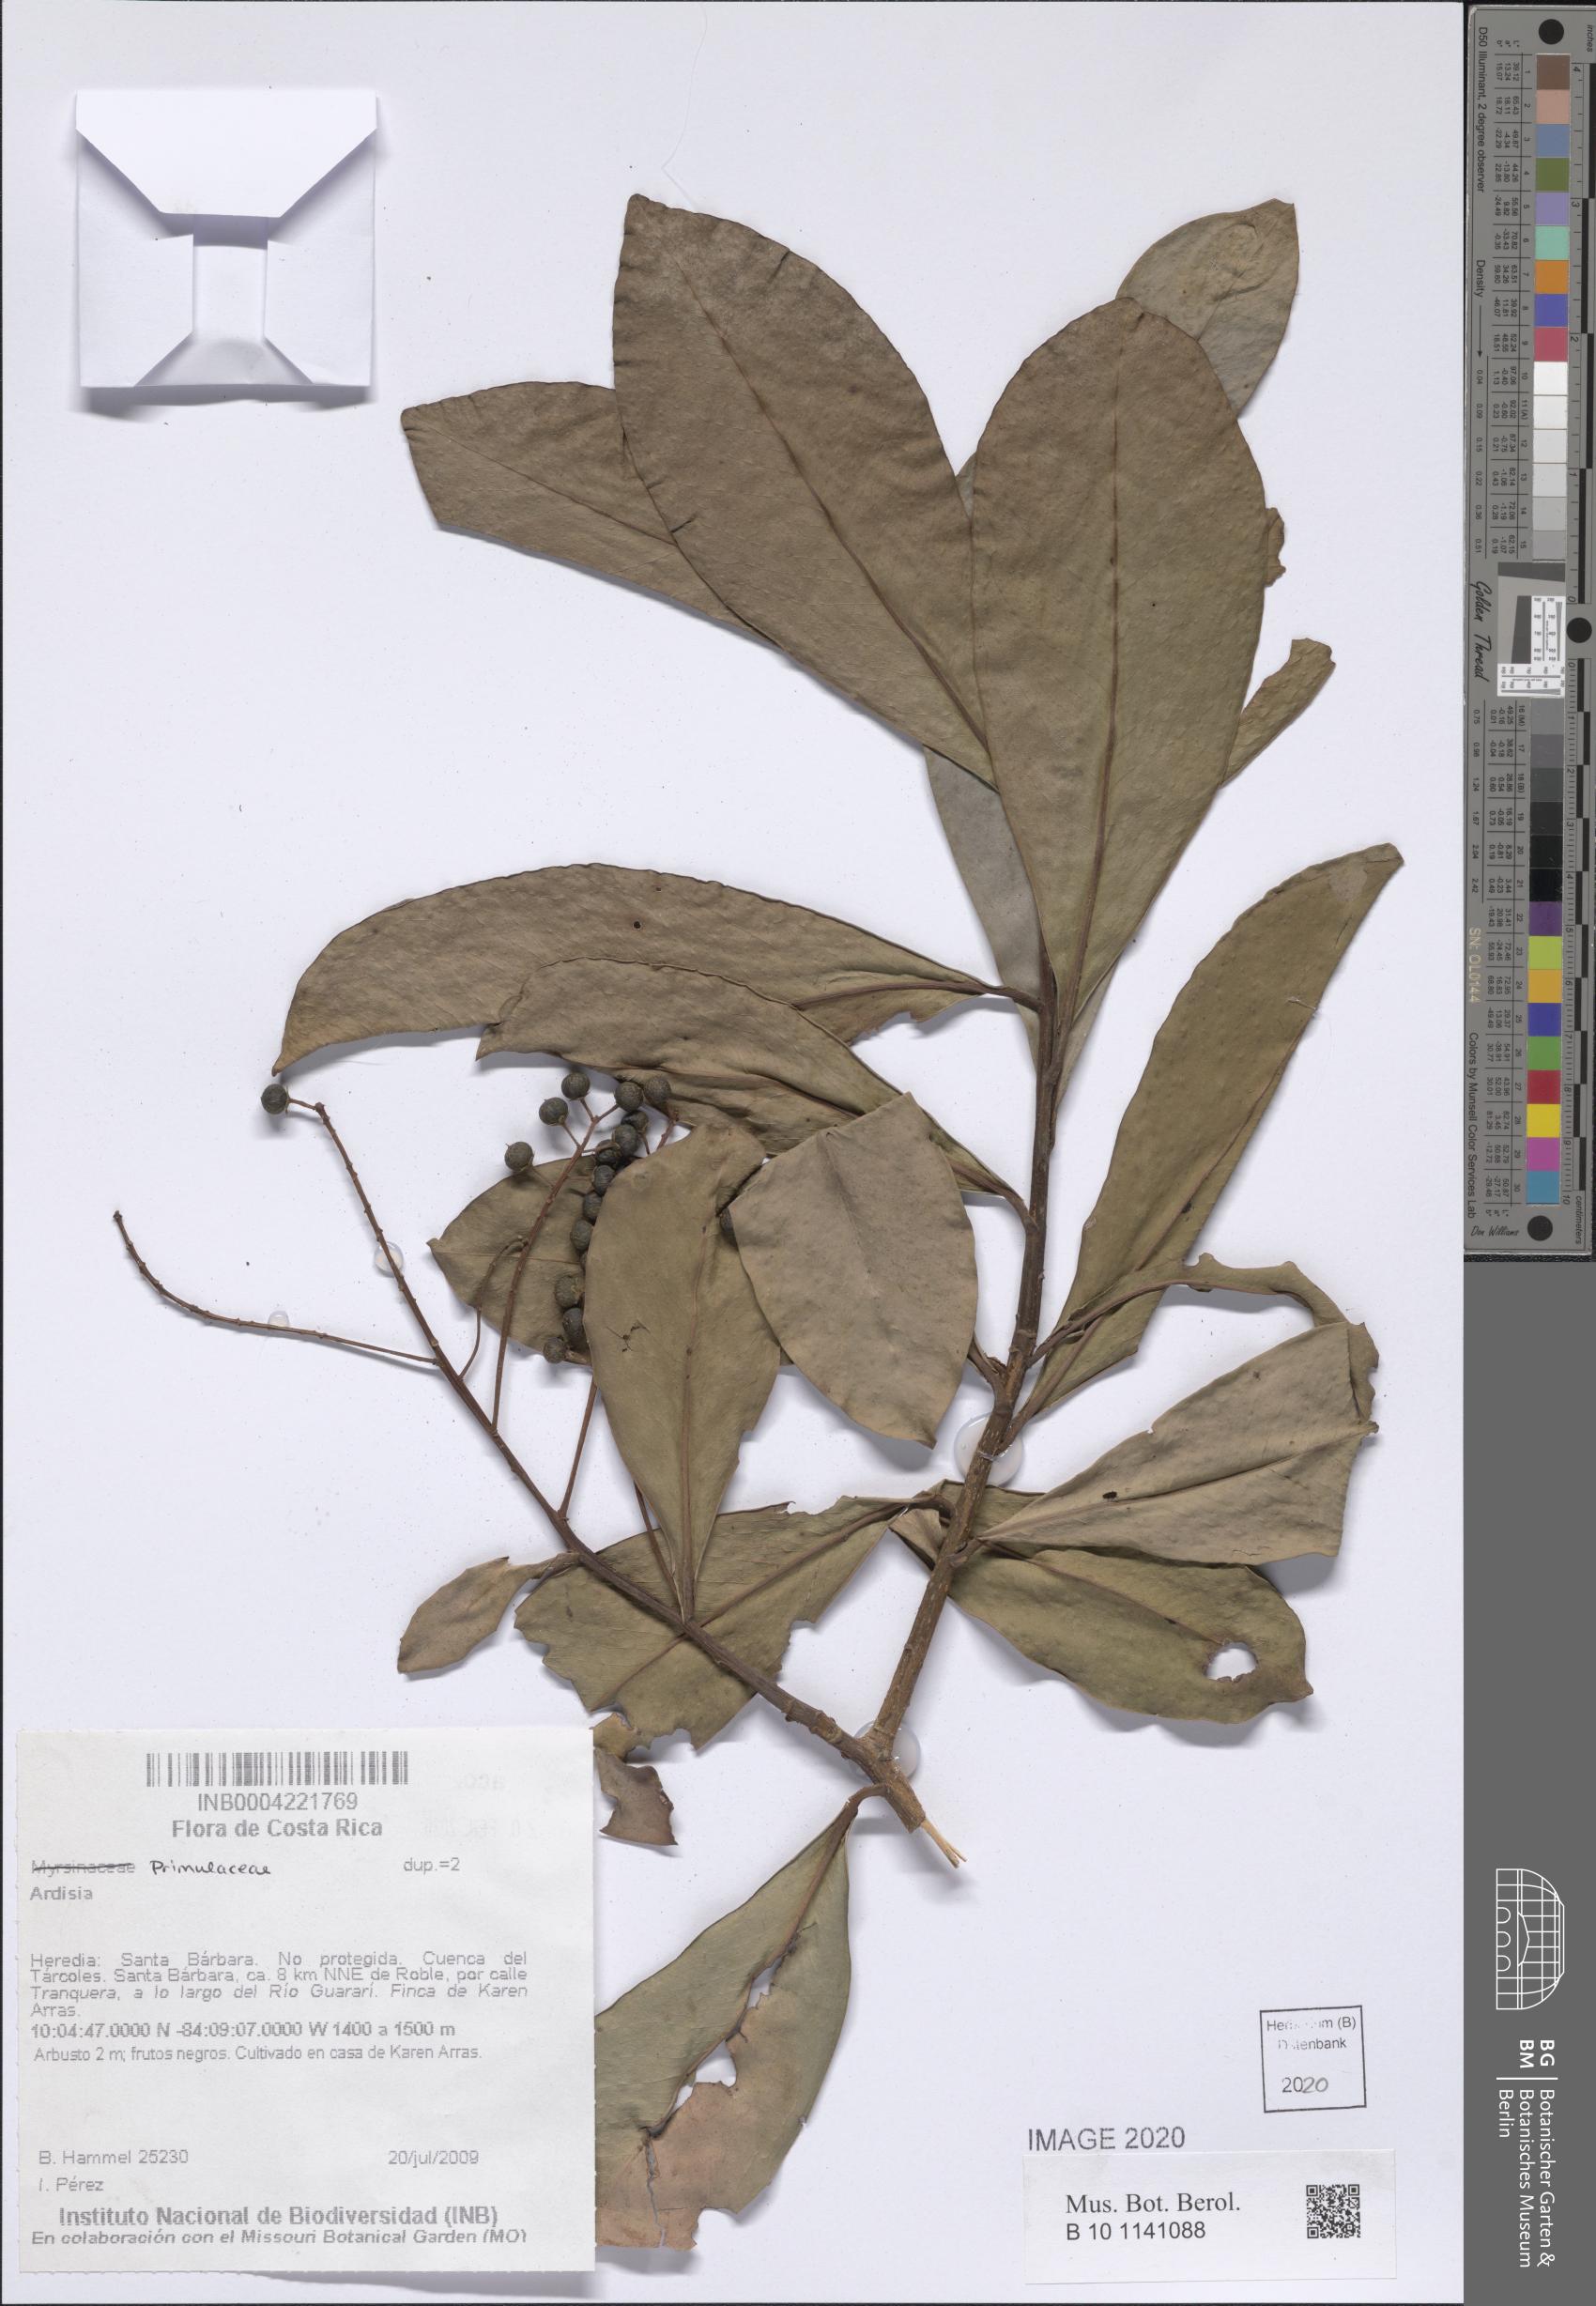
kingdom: Plantae
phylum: Tracheophyta
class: Magnoliopsida
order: Ericales
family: Primulaceae
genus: Ardisia
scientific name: Ardisia
